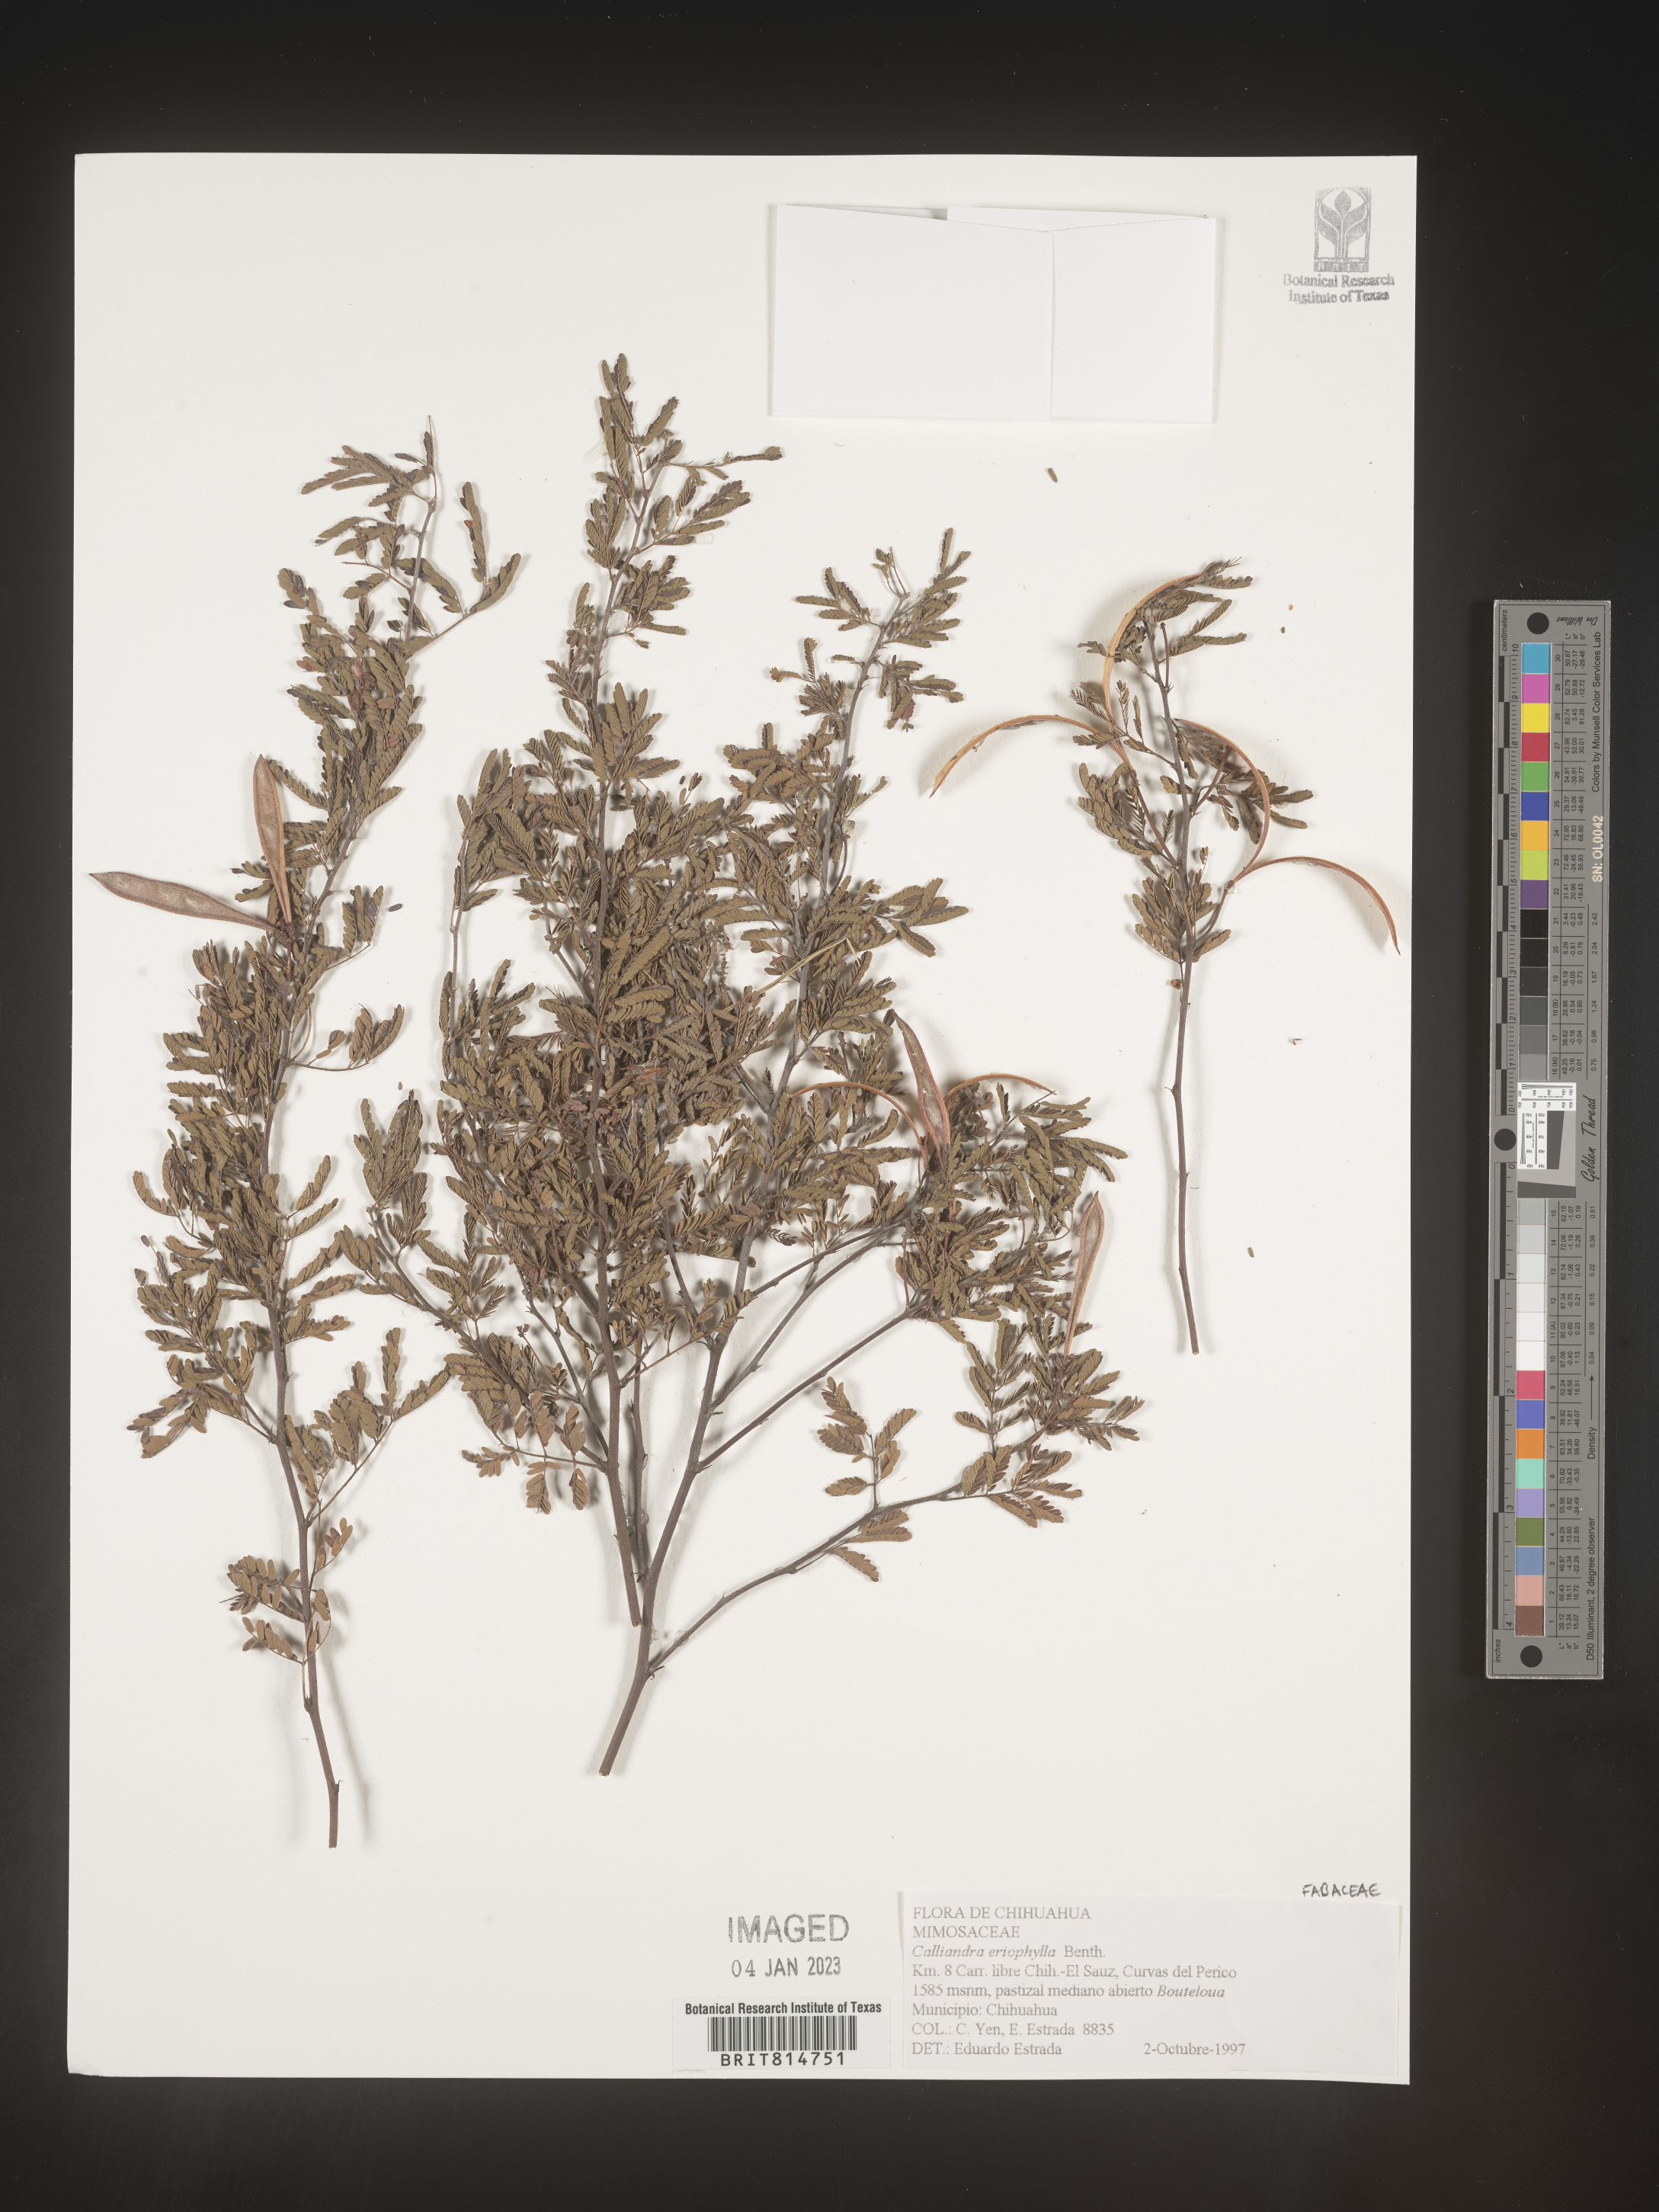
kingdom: Plantae
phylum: Tracheophyta
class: Magnoliopsida
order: Fabales
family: Fabaceae
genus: Calliandra
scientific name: Calliandra
